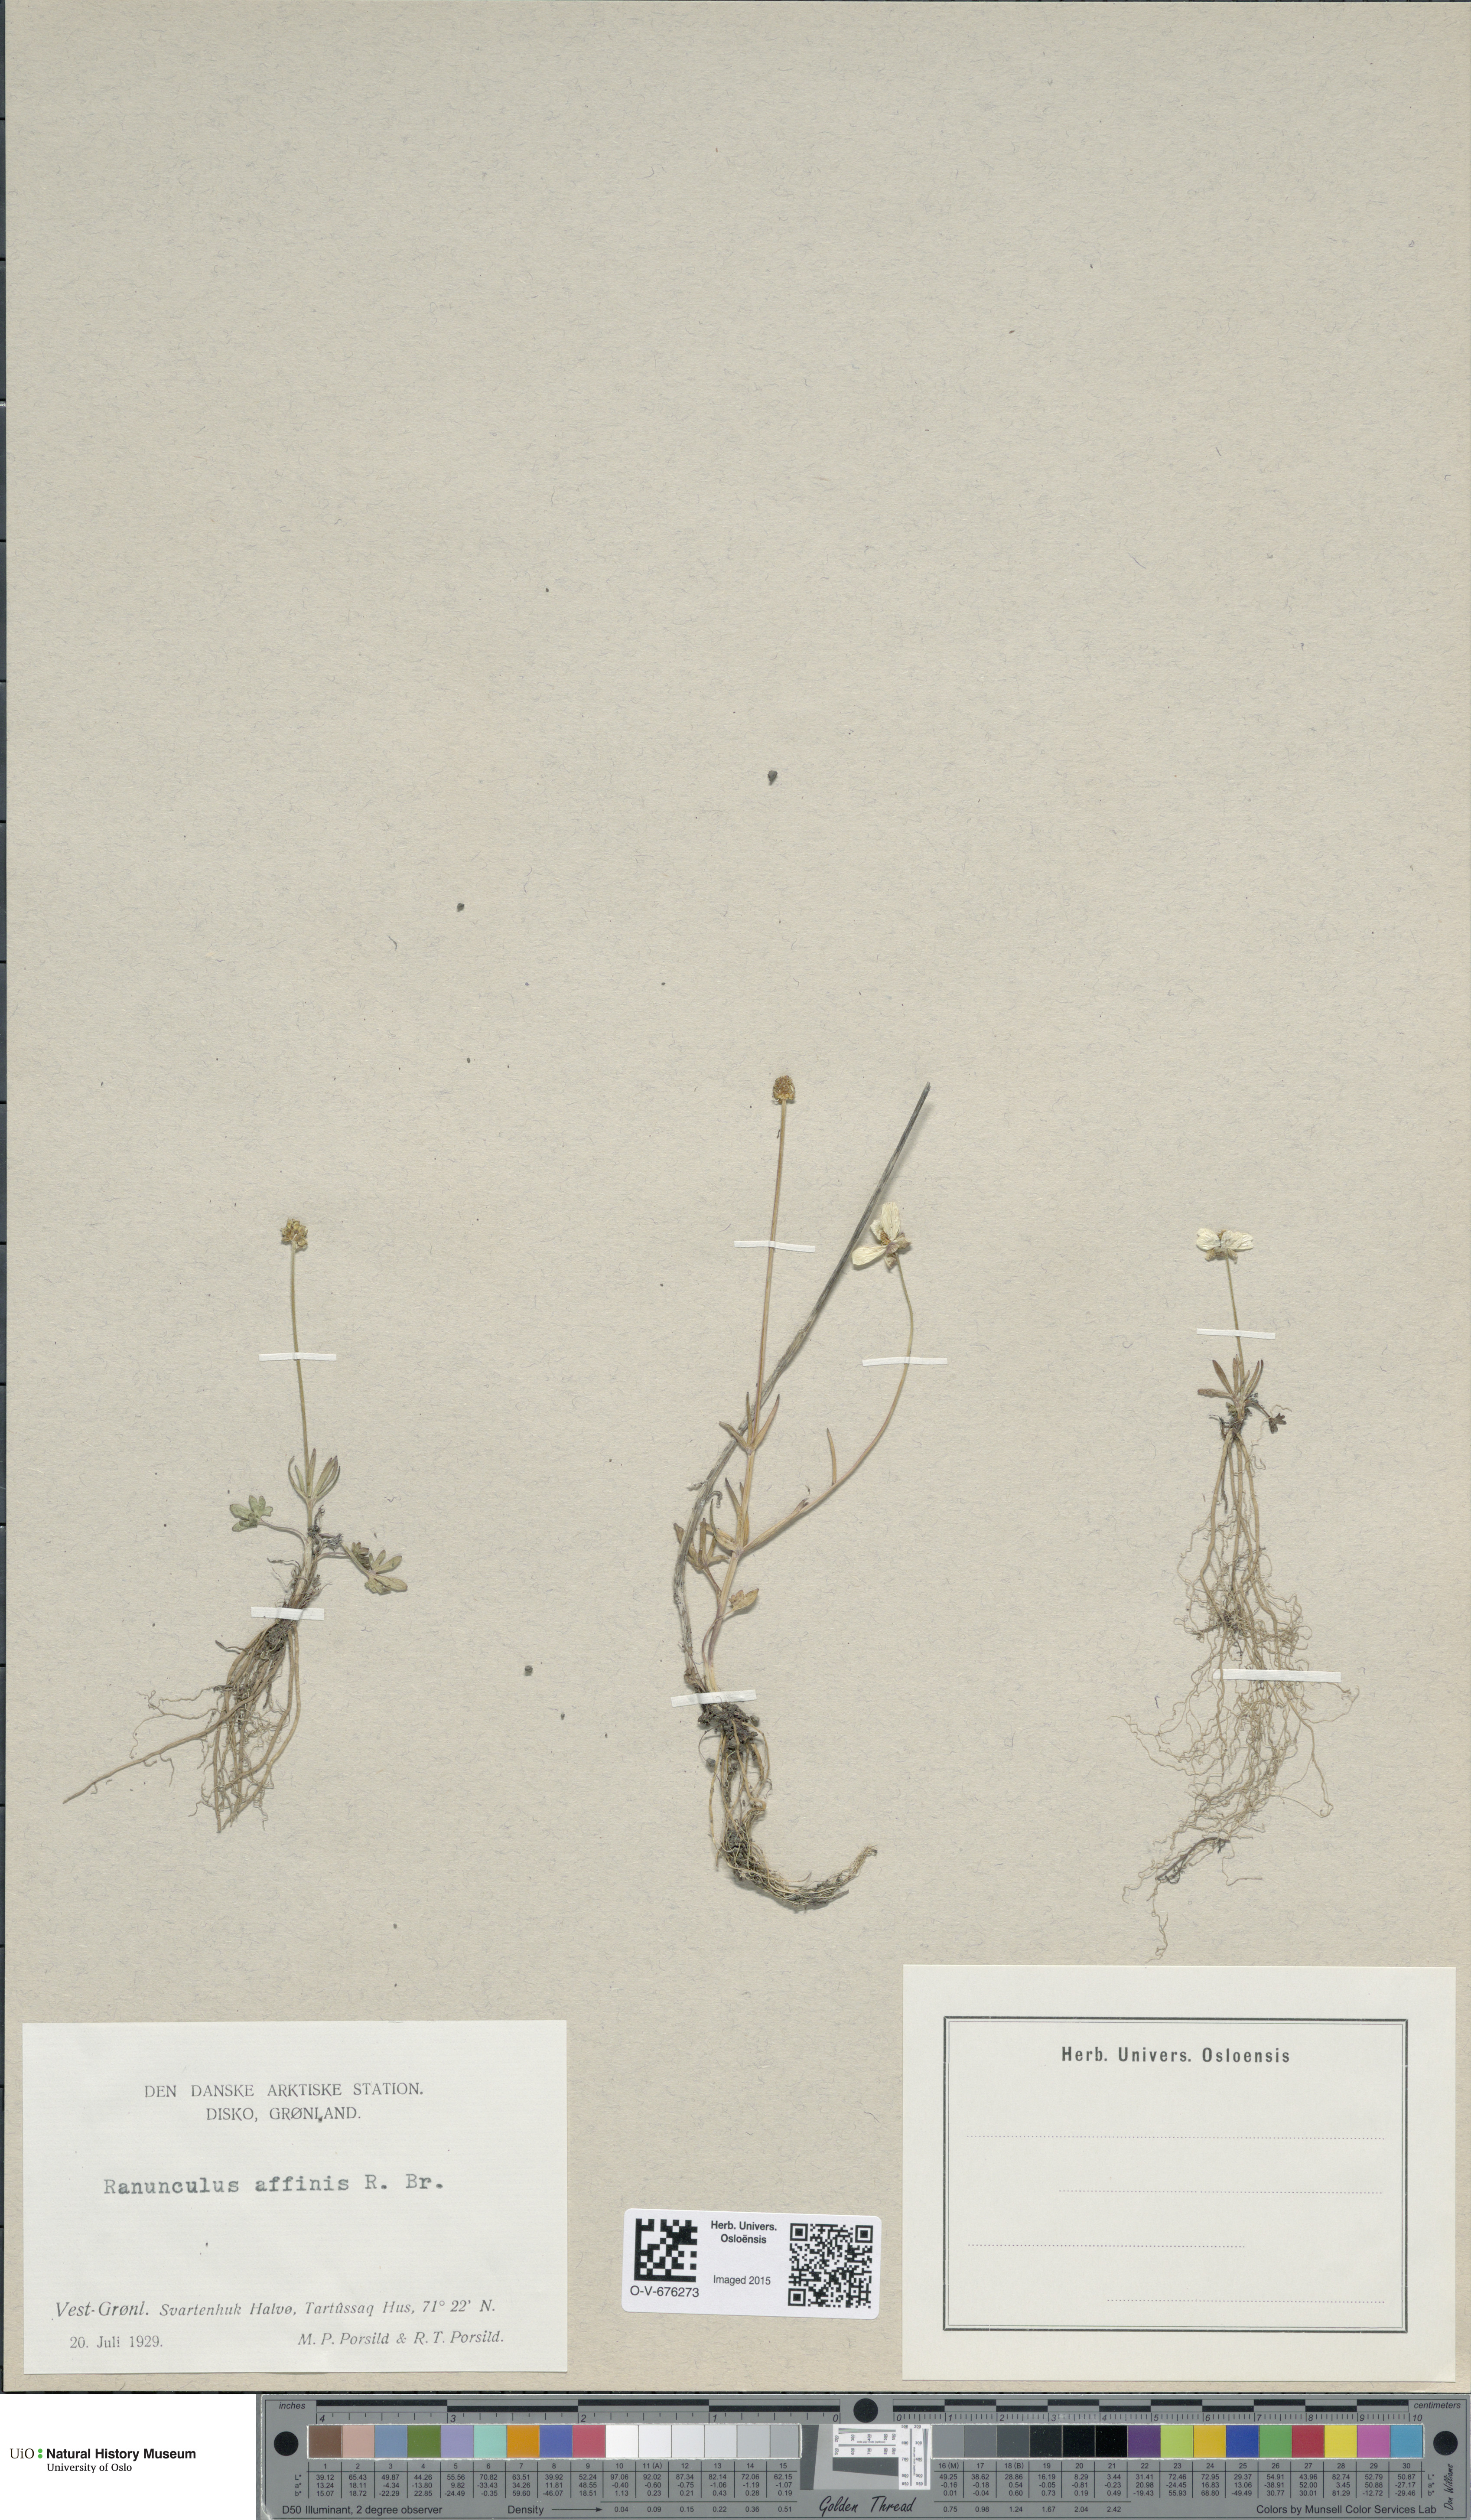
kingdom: Plantae
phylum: Tracheophyta
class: Magnoliopsida
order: Ranunculales
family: Ranunculaceae
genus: Ranunculus
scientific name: Ranunculus arcticus
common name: Bird's-foot buttercup
